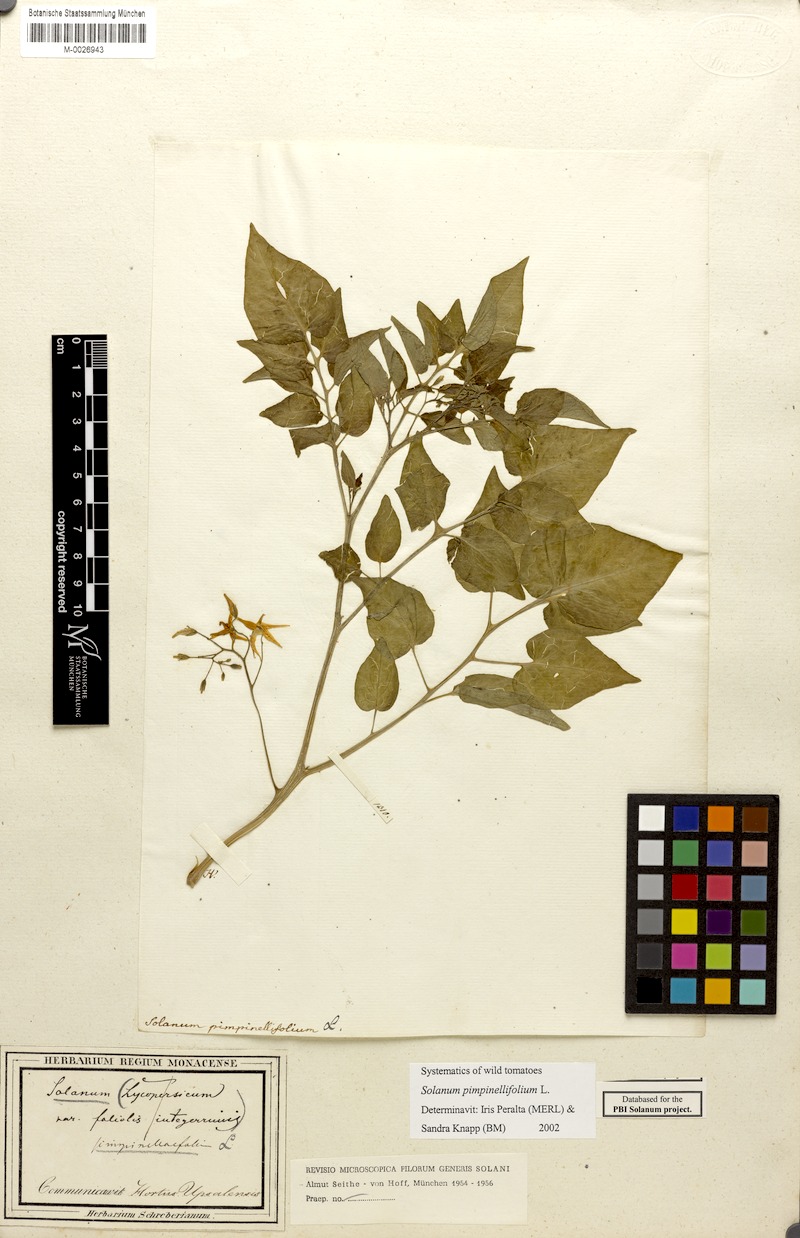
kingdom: Plantae
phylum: Tracheophyta
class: Magnoliopsida
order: Solanales
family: Solanaceae
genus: Solanum
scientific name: Solanum pimpinellifolium
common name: Currant-tomato
